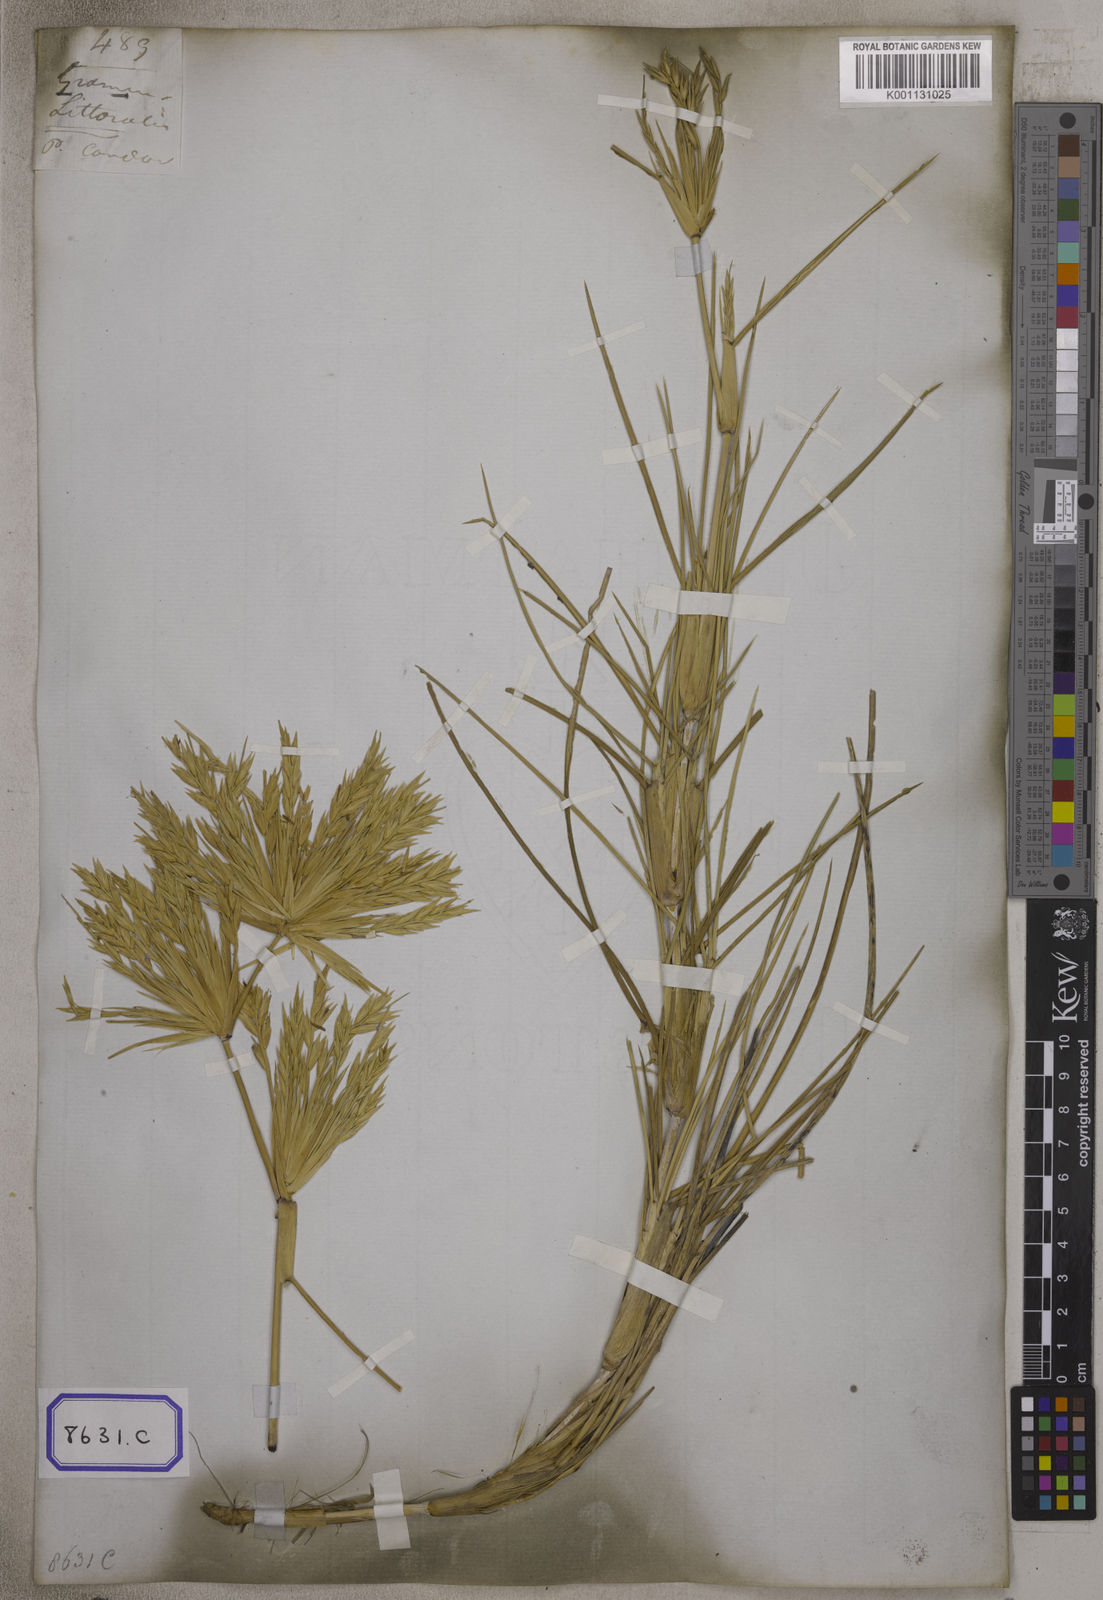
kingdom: Plantae
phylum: Tracheophyta
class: Liliopsida
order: Poales
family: Poaceae
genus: Spinifex
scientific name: Spinifex littoreus
